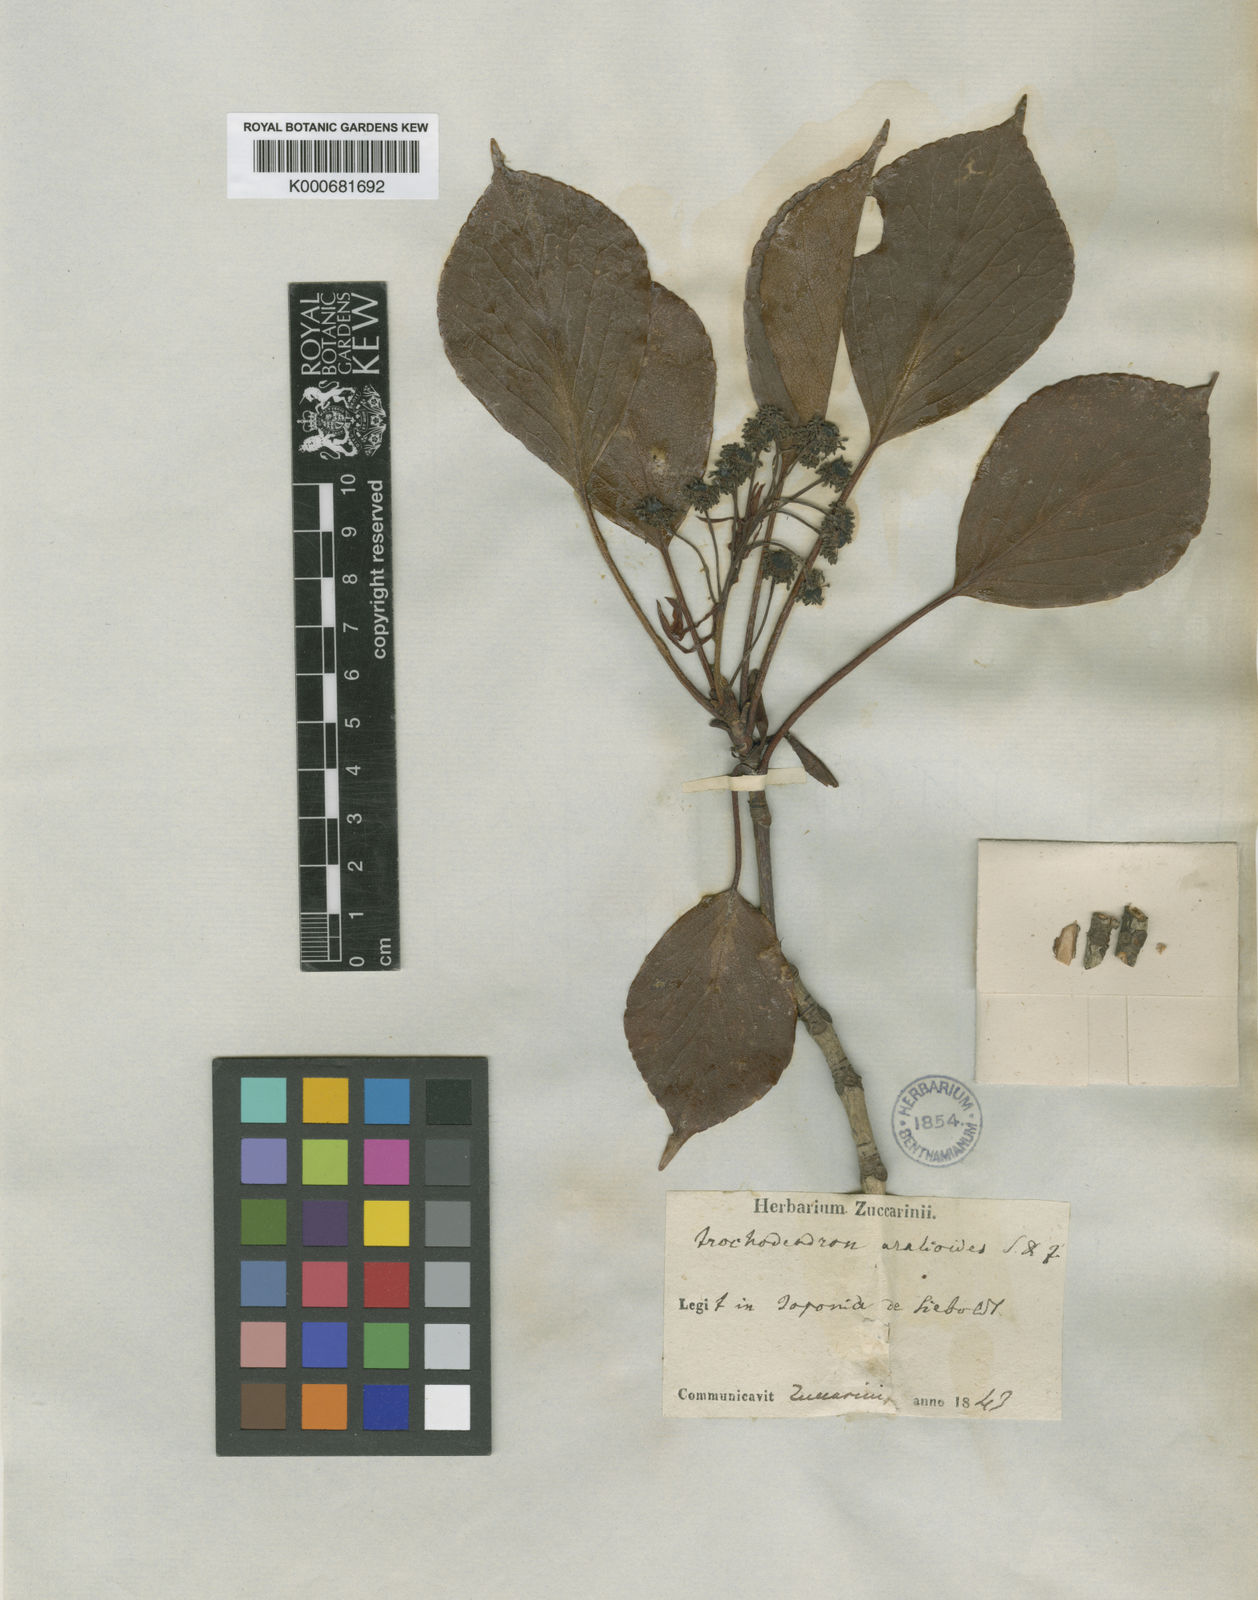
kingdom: Plantae
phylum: Tracheophyta
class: Magnoliopsida
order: Trochodendrales
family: Trochodendraceae
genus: Trochodendron
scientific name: Trochodendron aralioides
